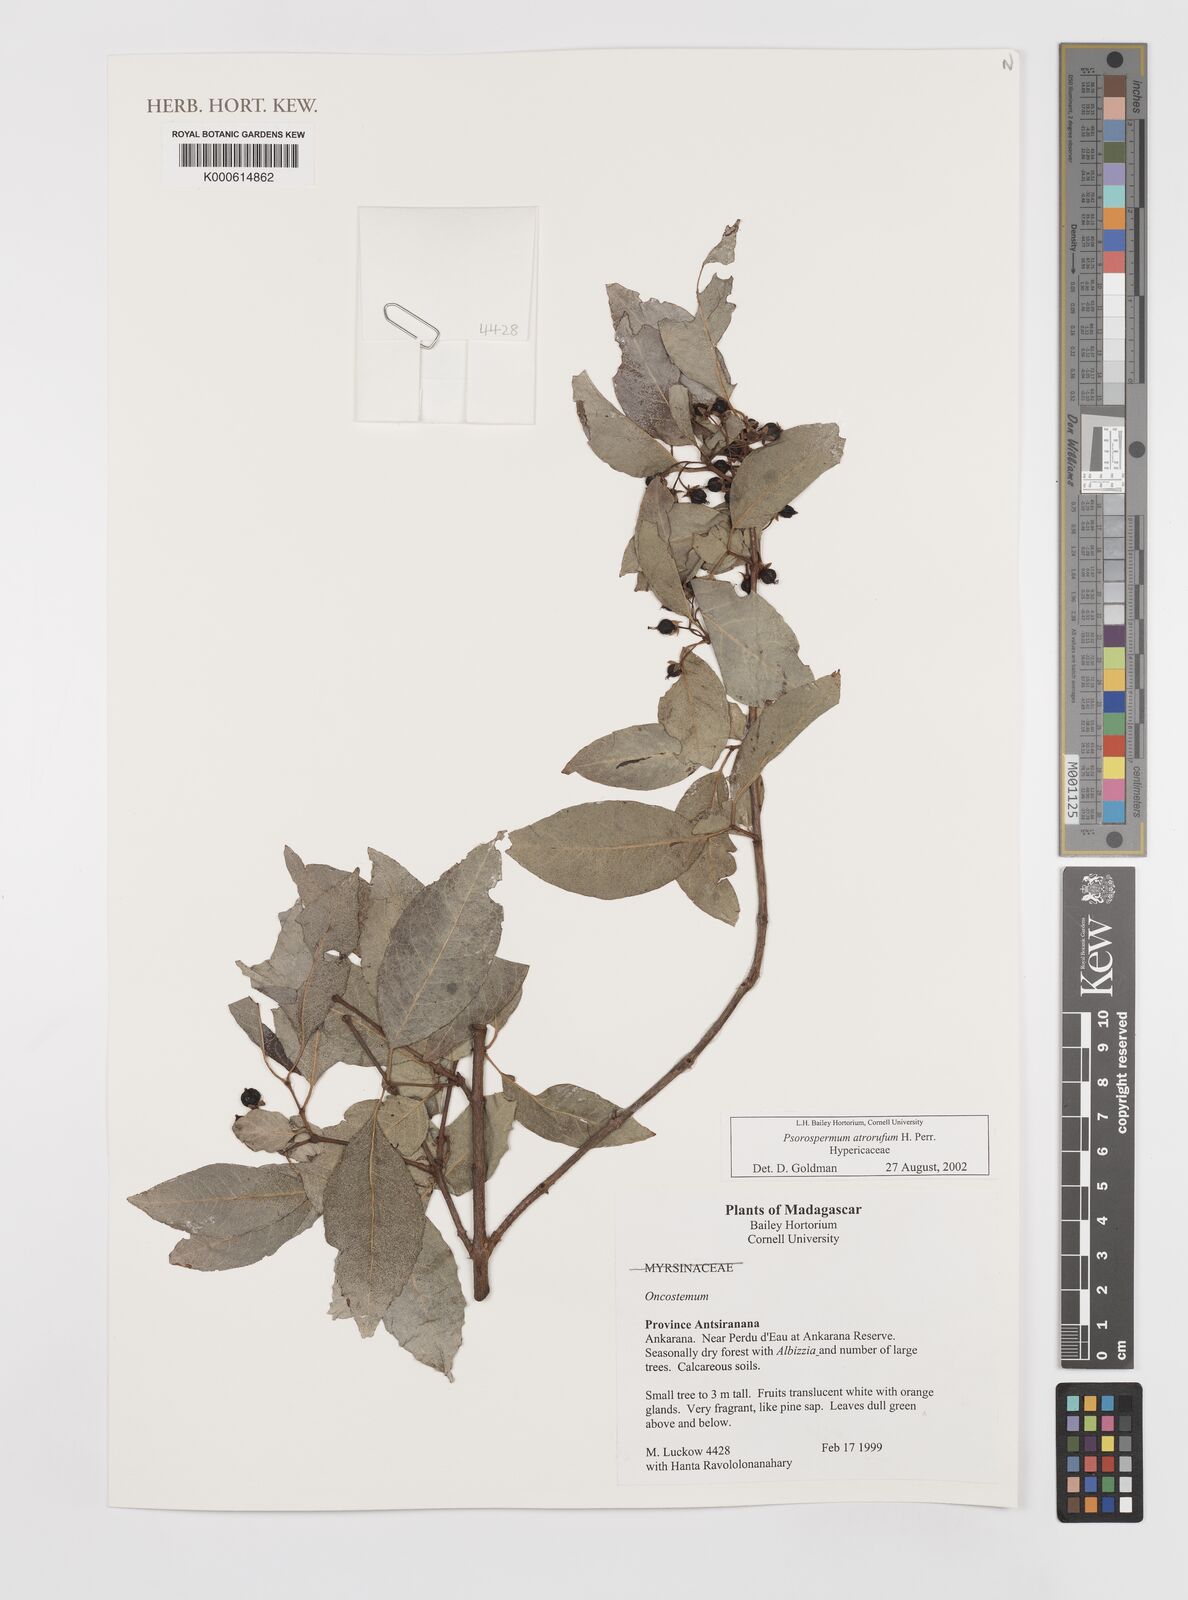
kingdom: Plantae
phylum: Tracheophyta
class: Magnoliopsida
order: Malpighiales
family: Hypericaceae
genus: Psorospermum
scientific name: Psorospermum atrorufum
